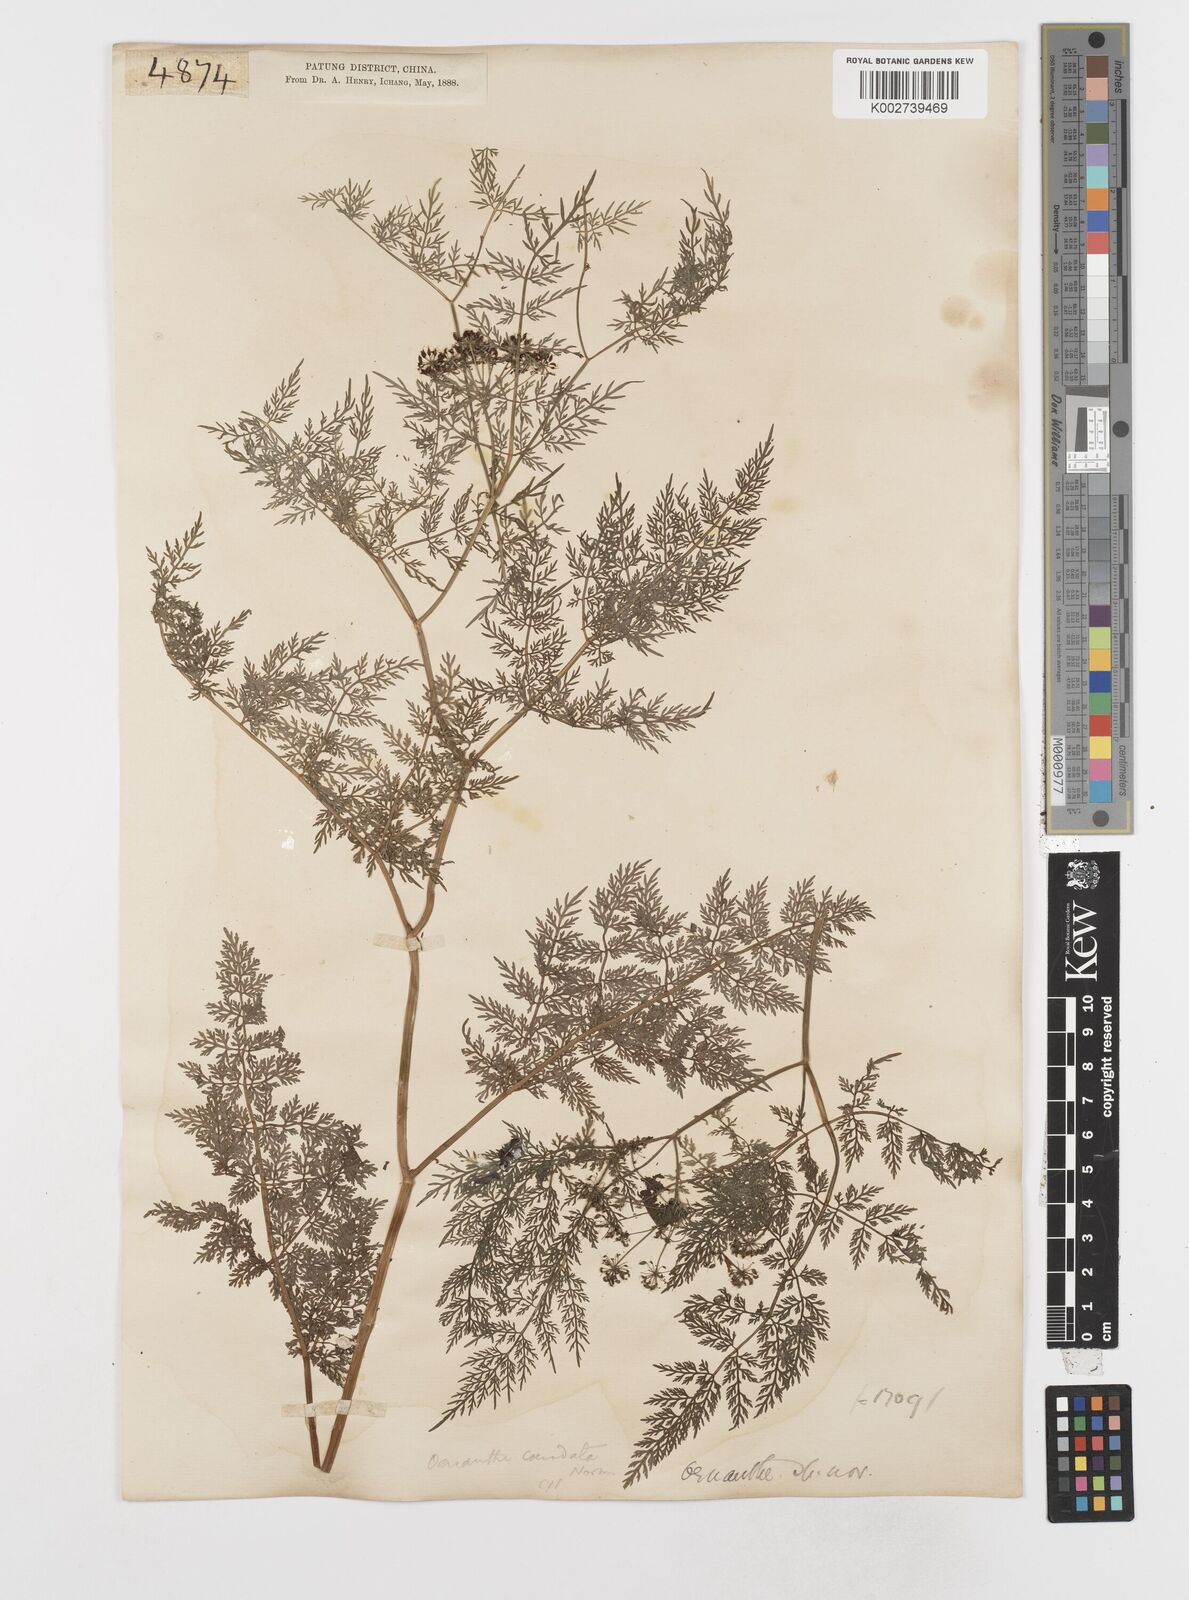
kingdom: Plantae
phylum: Tracheophyta
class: Magnoliopsida
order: Apiales
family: Apiaceae
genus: Oenanthe
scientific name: Oenanthe thomsonii
